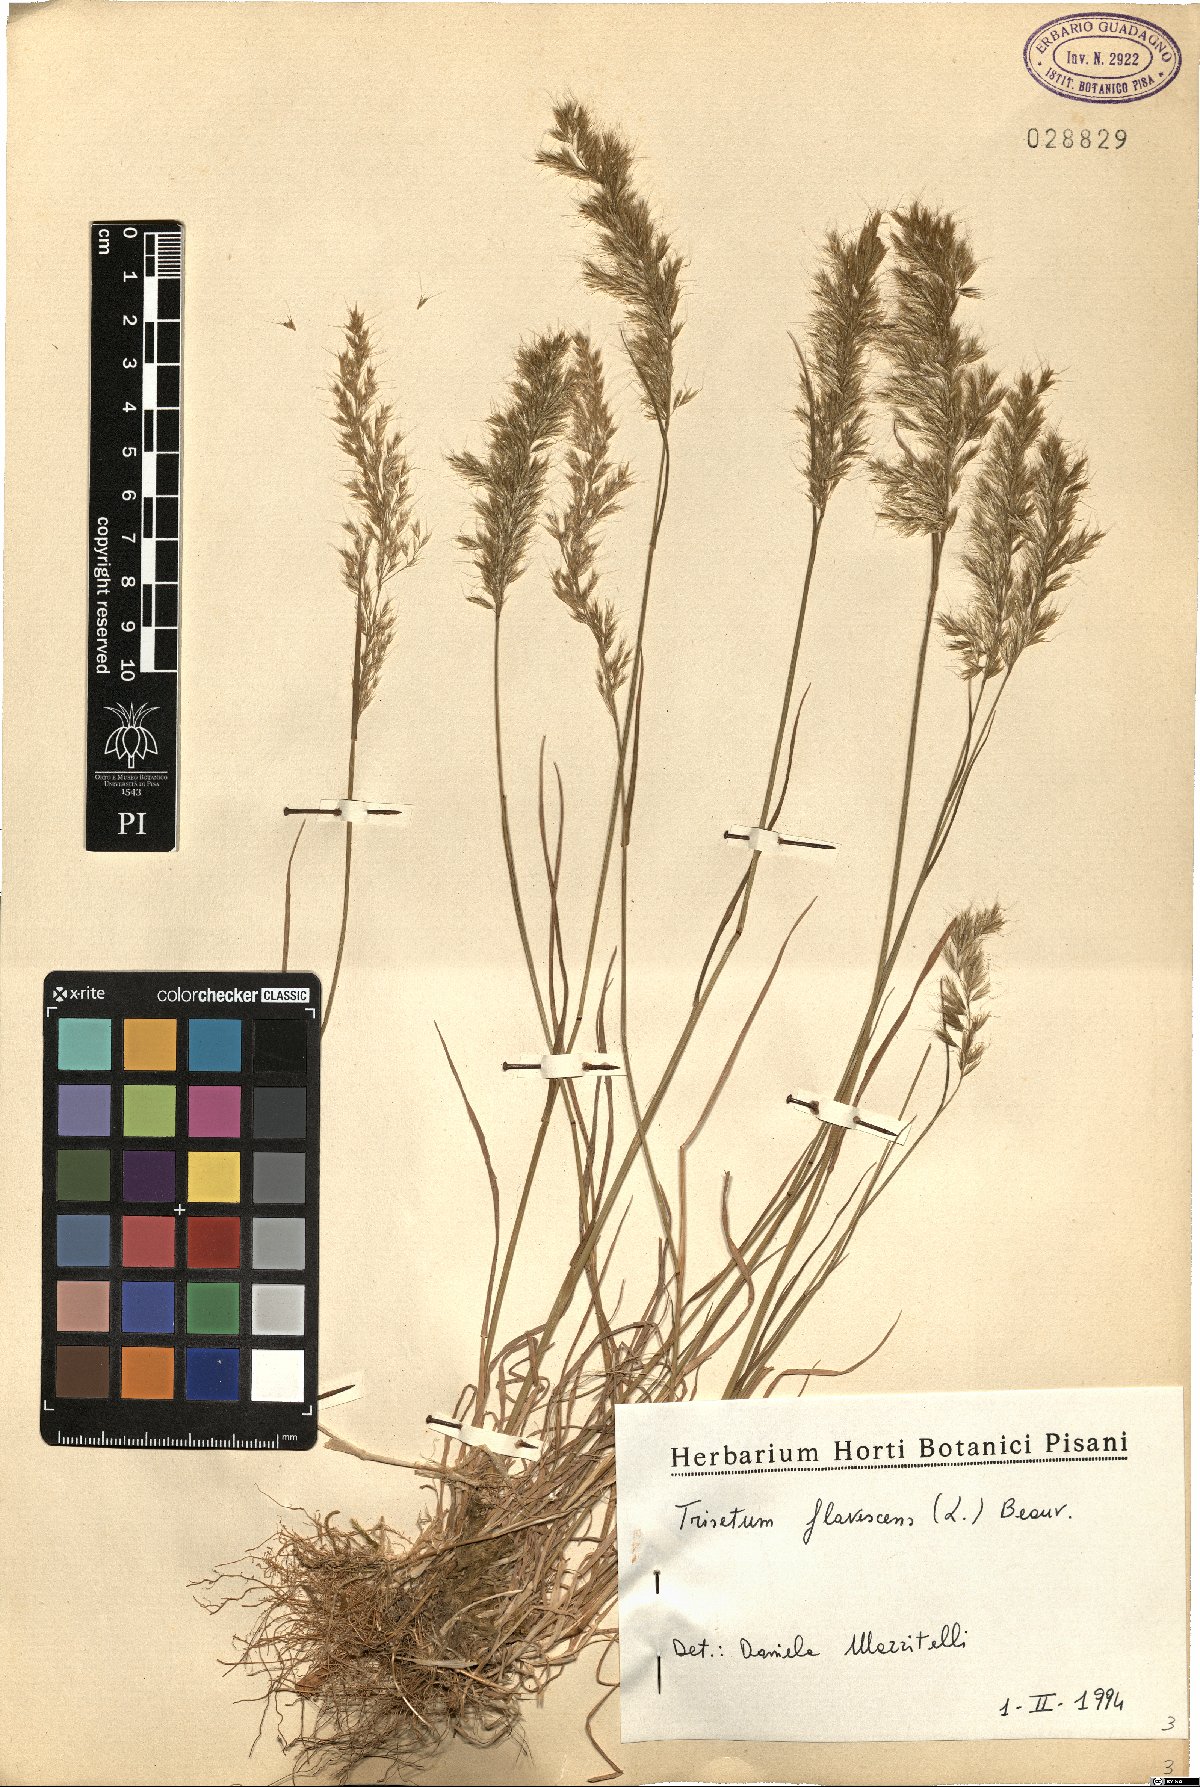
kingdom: Plantae
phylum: Tracheophyta
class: Liliopsida
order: Poales
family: Poaceae
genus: Trisetum
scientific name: Trisetum flavescens
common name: Yellow oat-grass
